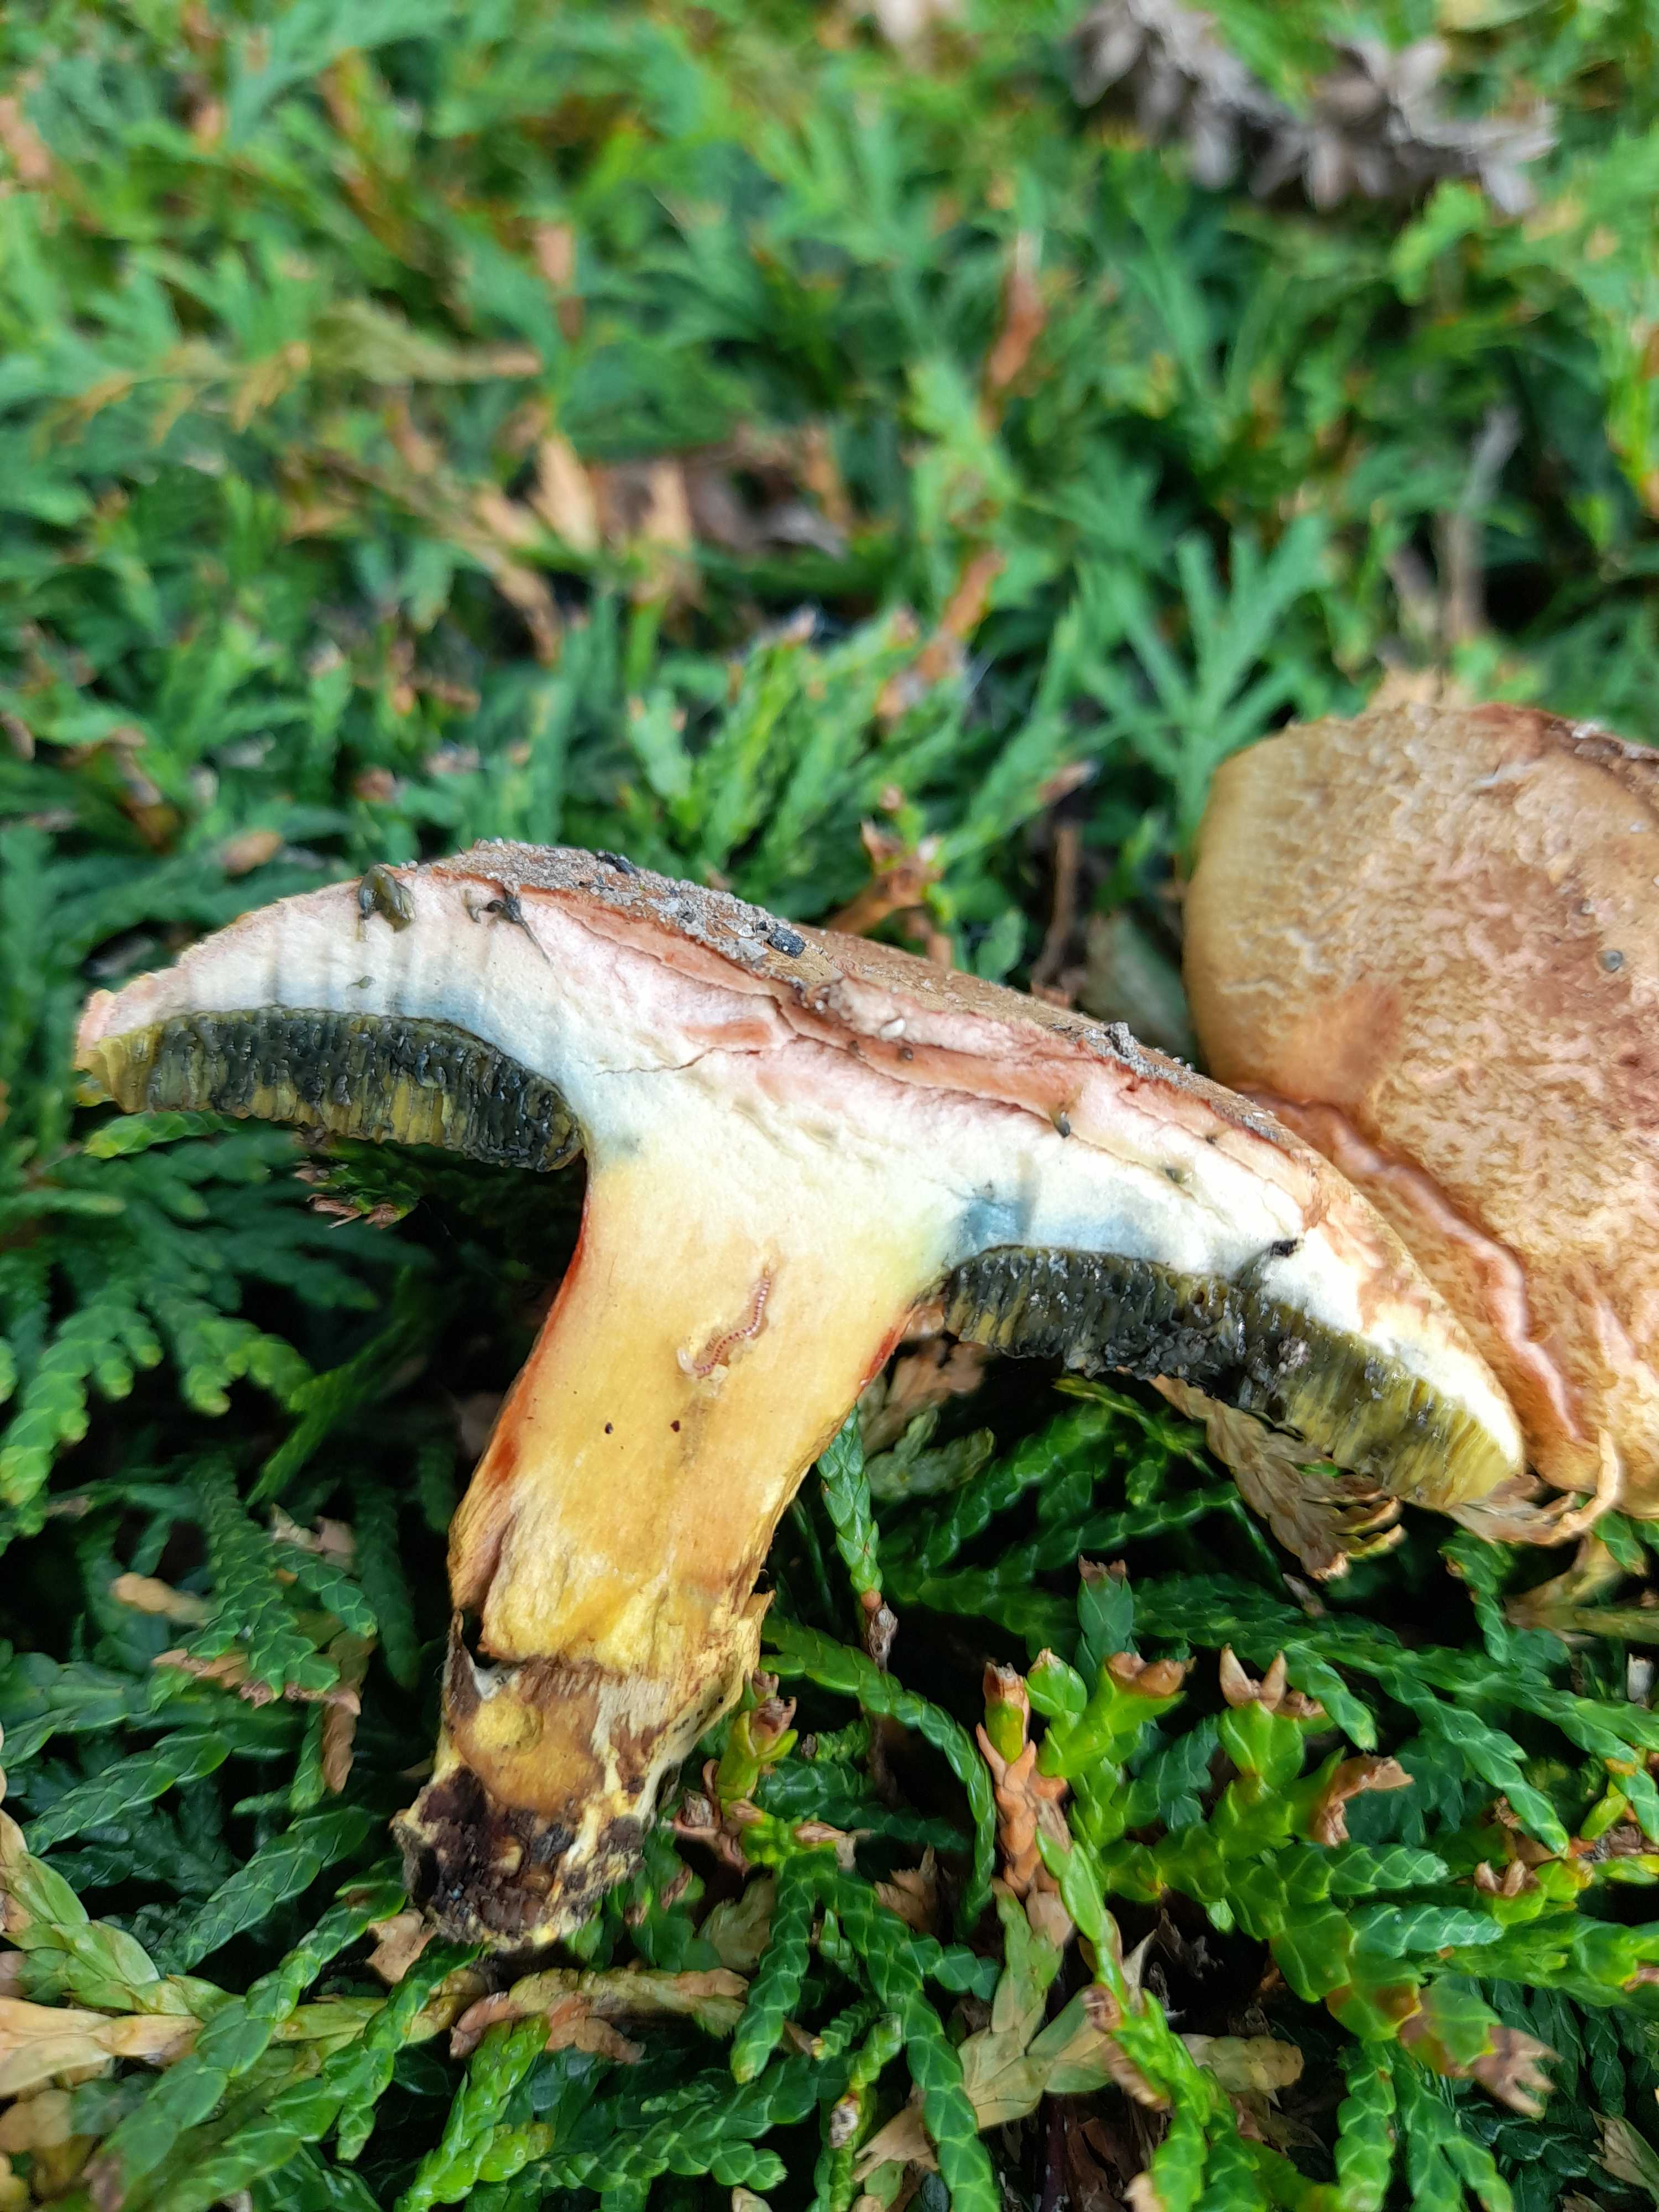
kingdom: Fungi
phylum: Basidiomycota
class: Agaricomycetes
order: Boletales
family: Boletaceae
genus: Hortiboletus
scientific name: Hortiboletus bubalinus
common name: aurora-rørhat
